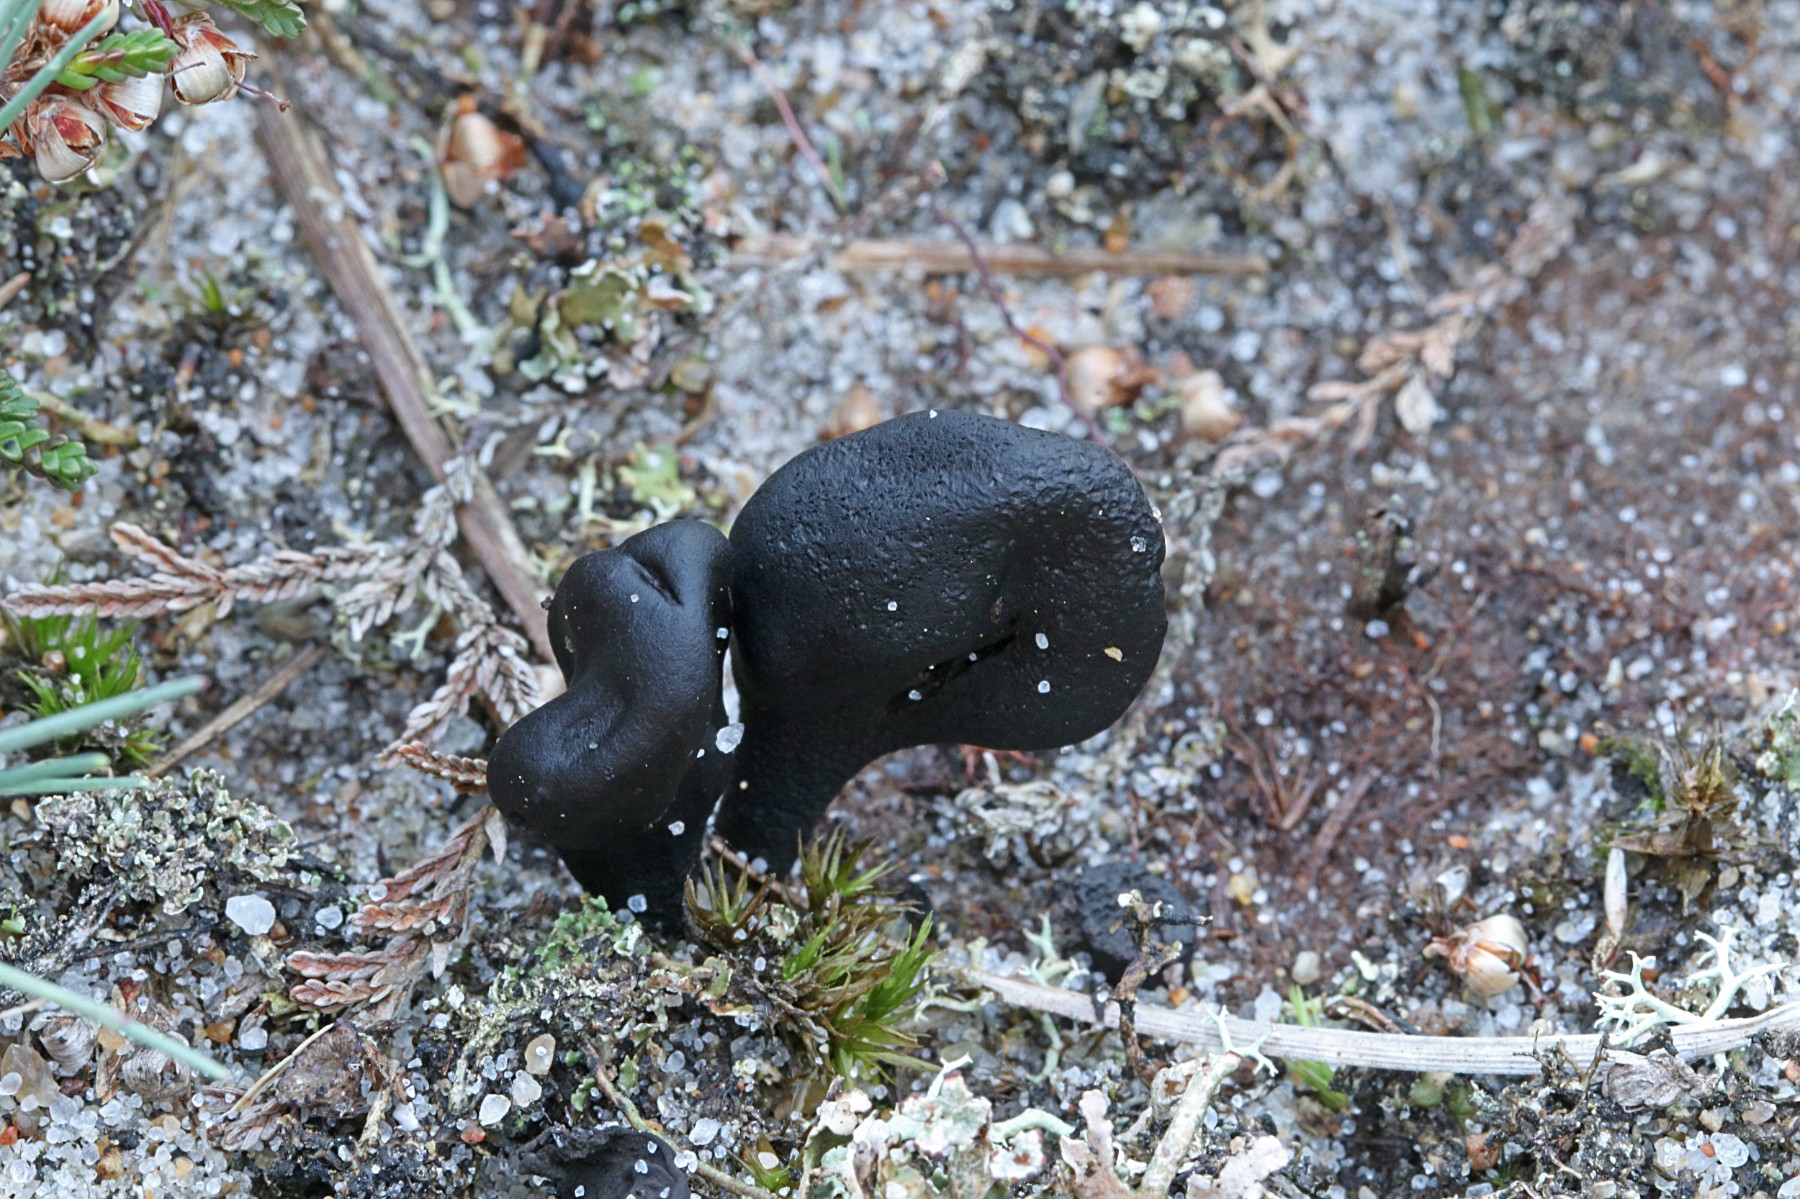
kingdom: Fungi
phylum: Ascomycota
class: Geoglossomycetes
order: Geoglossales
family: Geoglossaceae
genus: Sabuloglossum
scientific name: Sabuloglossum arenarium
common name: klit-jordtunge
